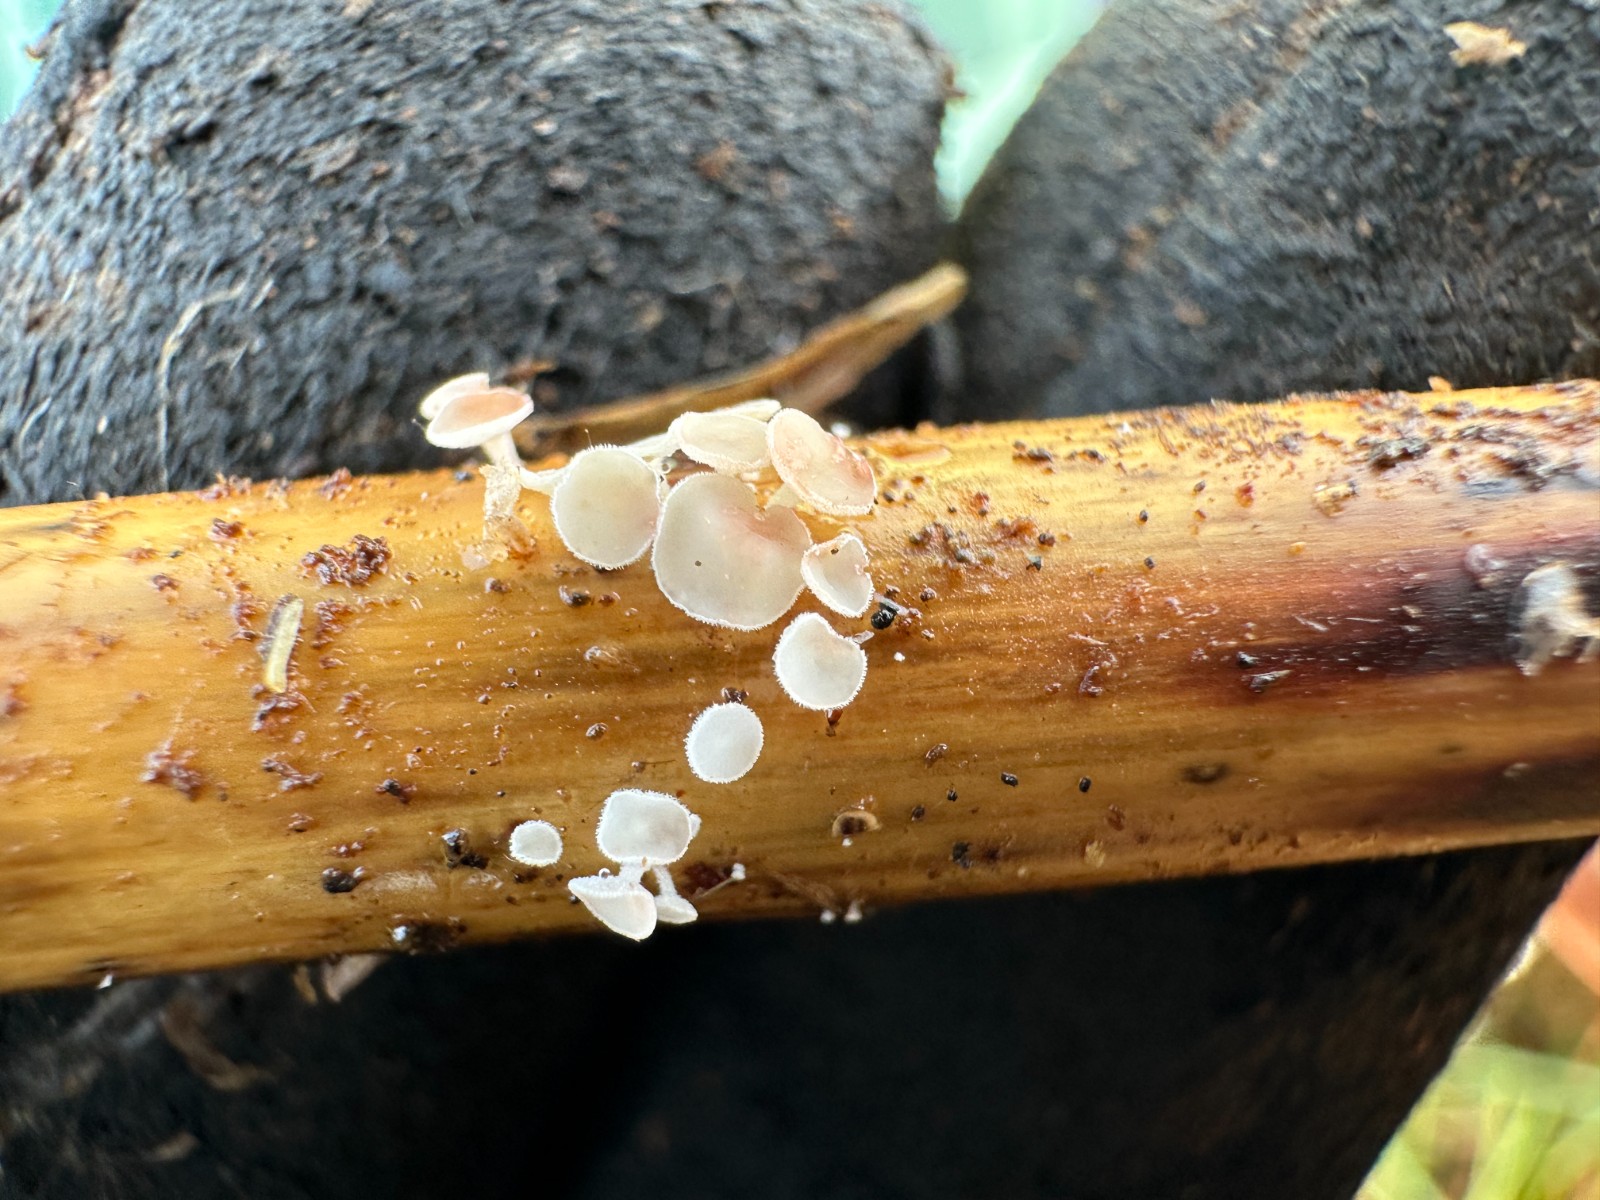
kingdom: Fungi
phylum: Ascomycota
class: Leotiomycetes
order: Helotiales
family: Lachnaceae
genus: Lachnum
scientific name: Lachnum controversum
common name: tagrør-frynseskive
